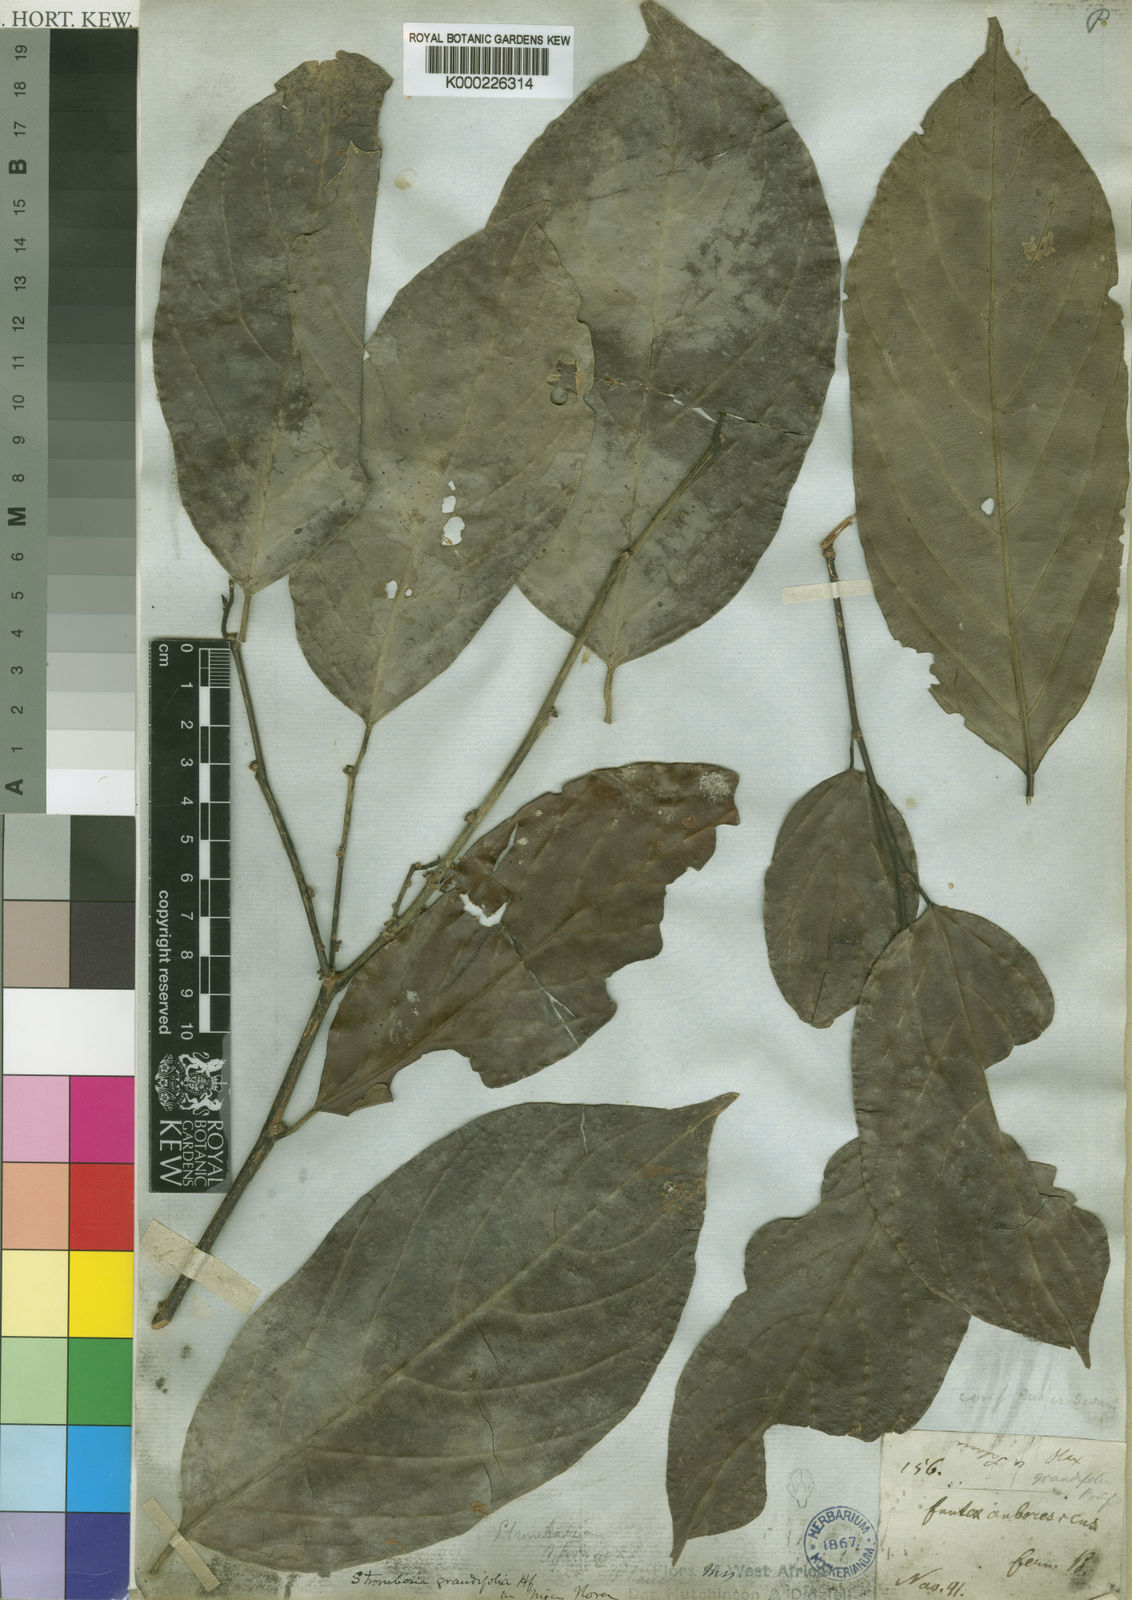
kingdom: Plantae
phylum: Tracheophyta
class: Magnoliopsida
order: Santalales
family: Strombosiaceae
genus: Strombosia
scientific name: Strombosia
